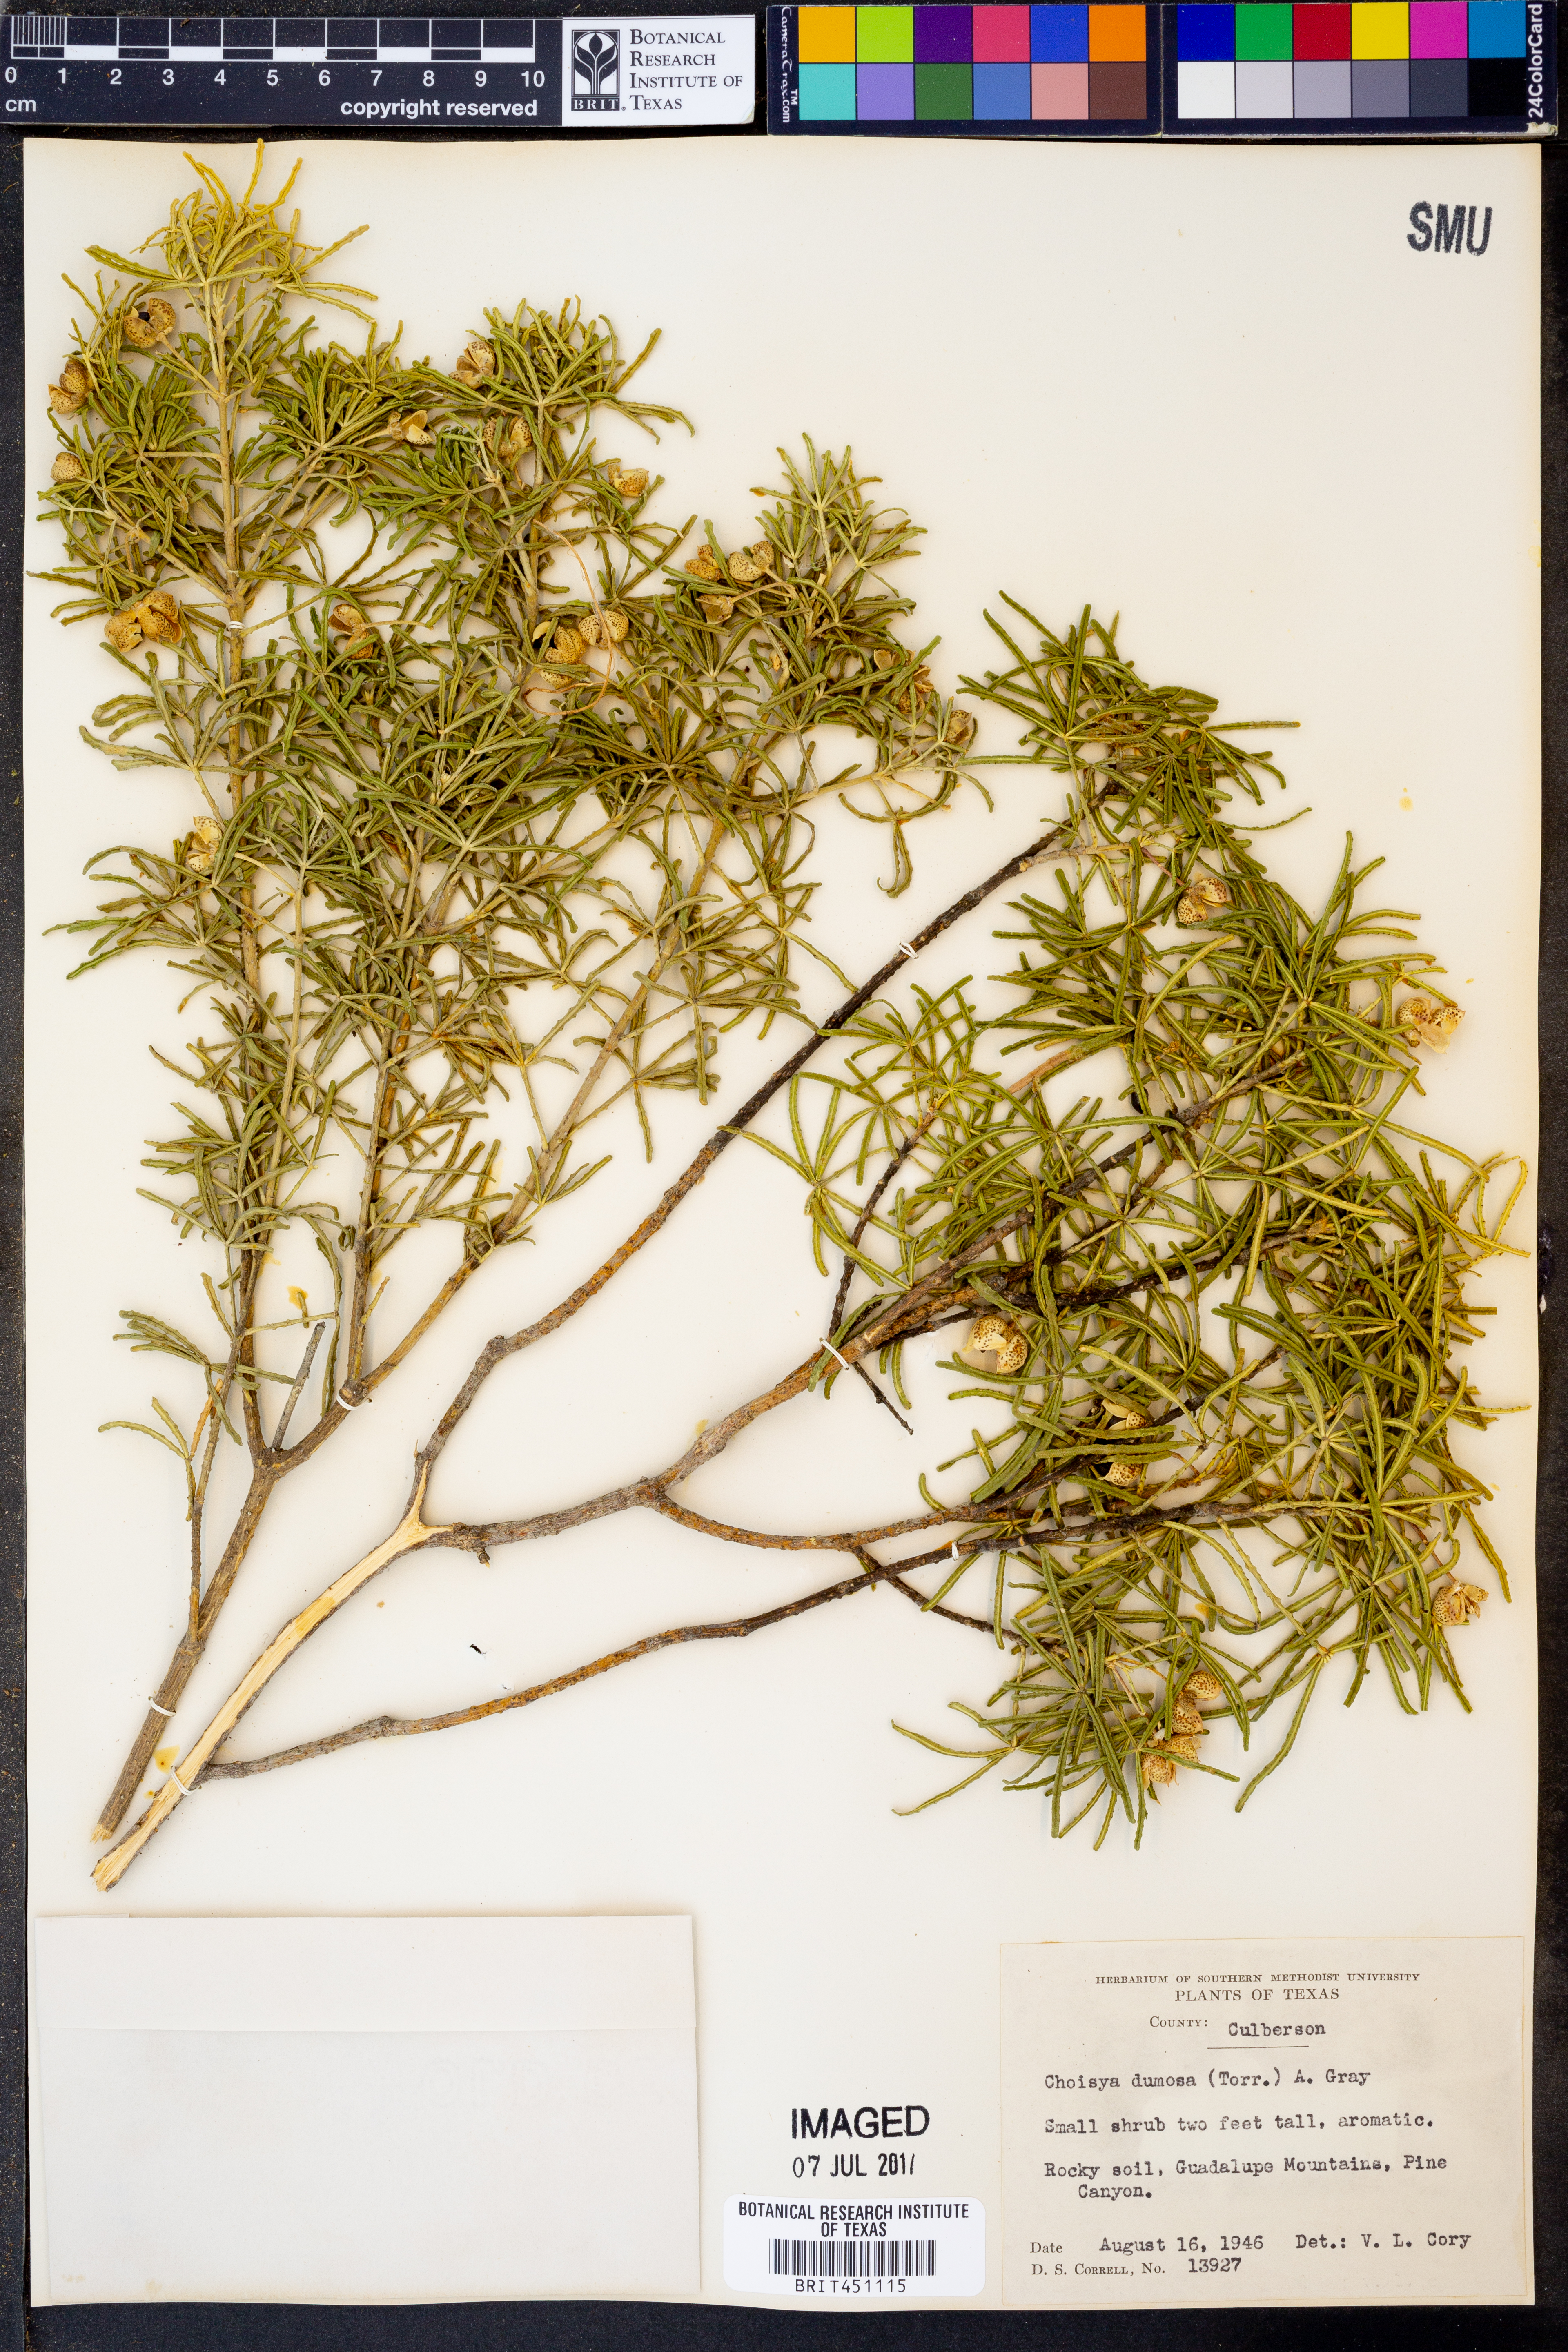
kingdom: Plantae
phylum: Tracheophyta
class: Magnoliopsida
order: Sapindales
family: Rutaceae
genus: Choisya
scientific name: Choisya dumosa
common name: Mexican-orange
